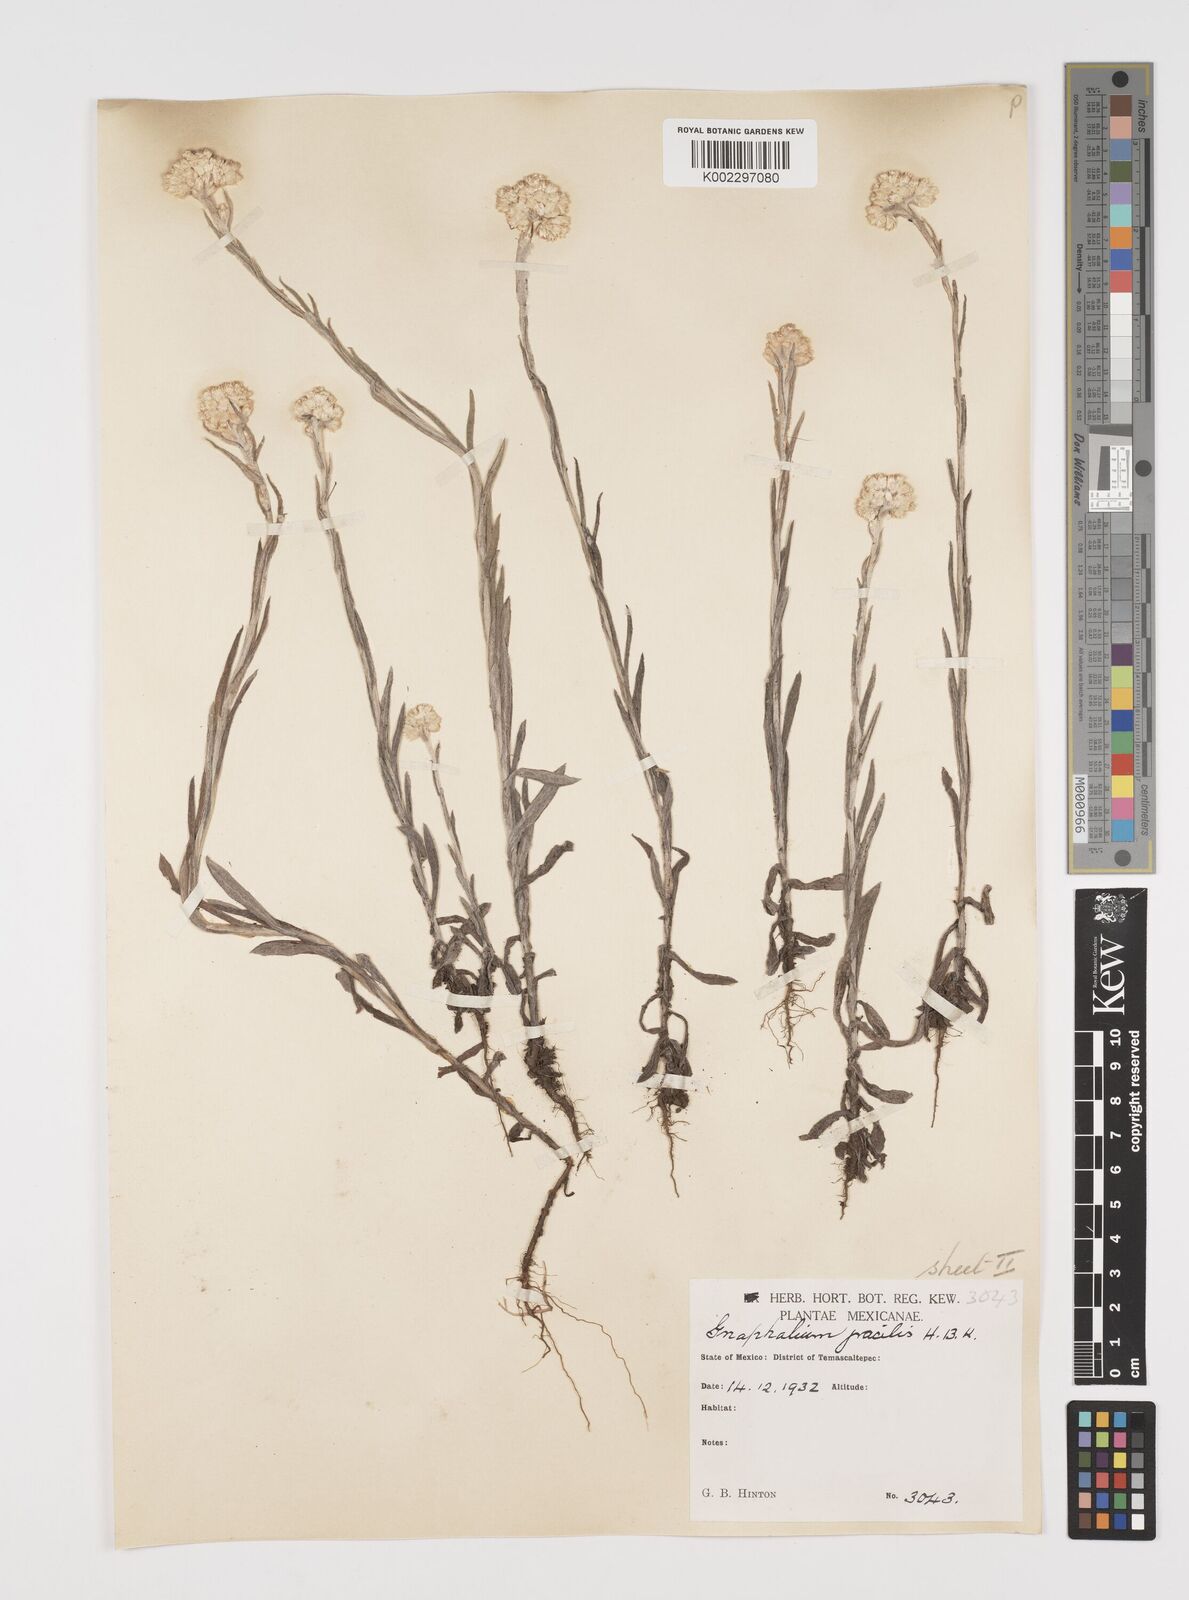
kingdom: Plantae
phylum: Tracheophyta
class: Magnoliopsida
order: Asterales
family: Asteraceae
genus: Pseudognaphalium
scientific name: Pseudognaphalium
